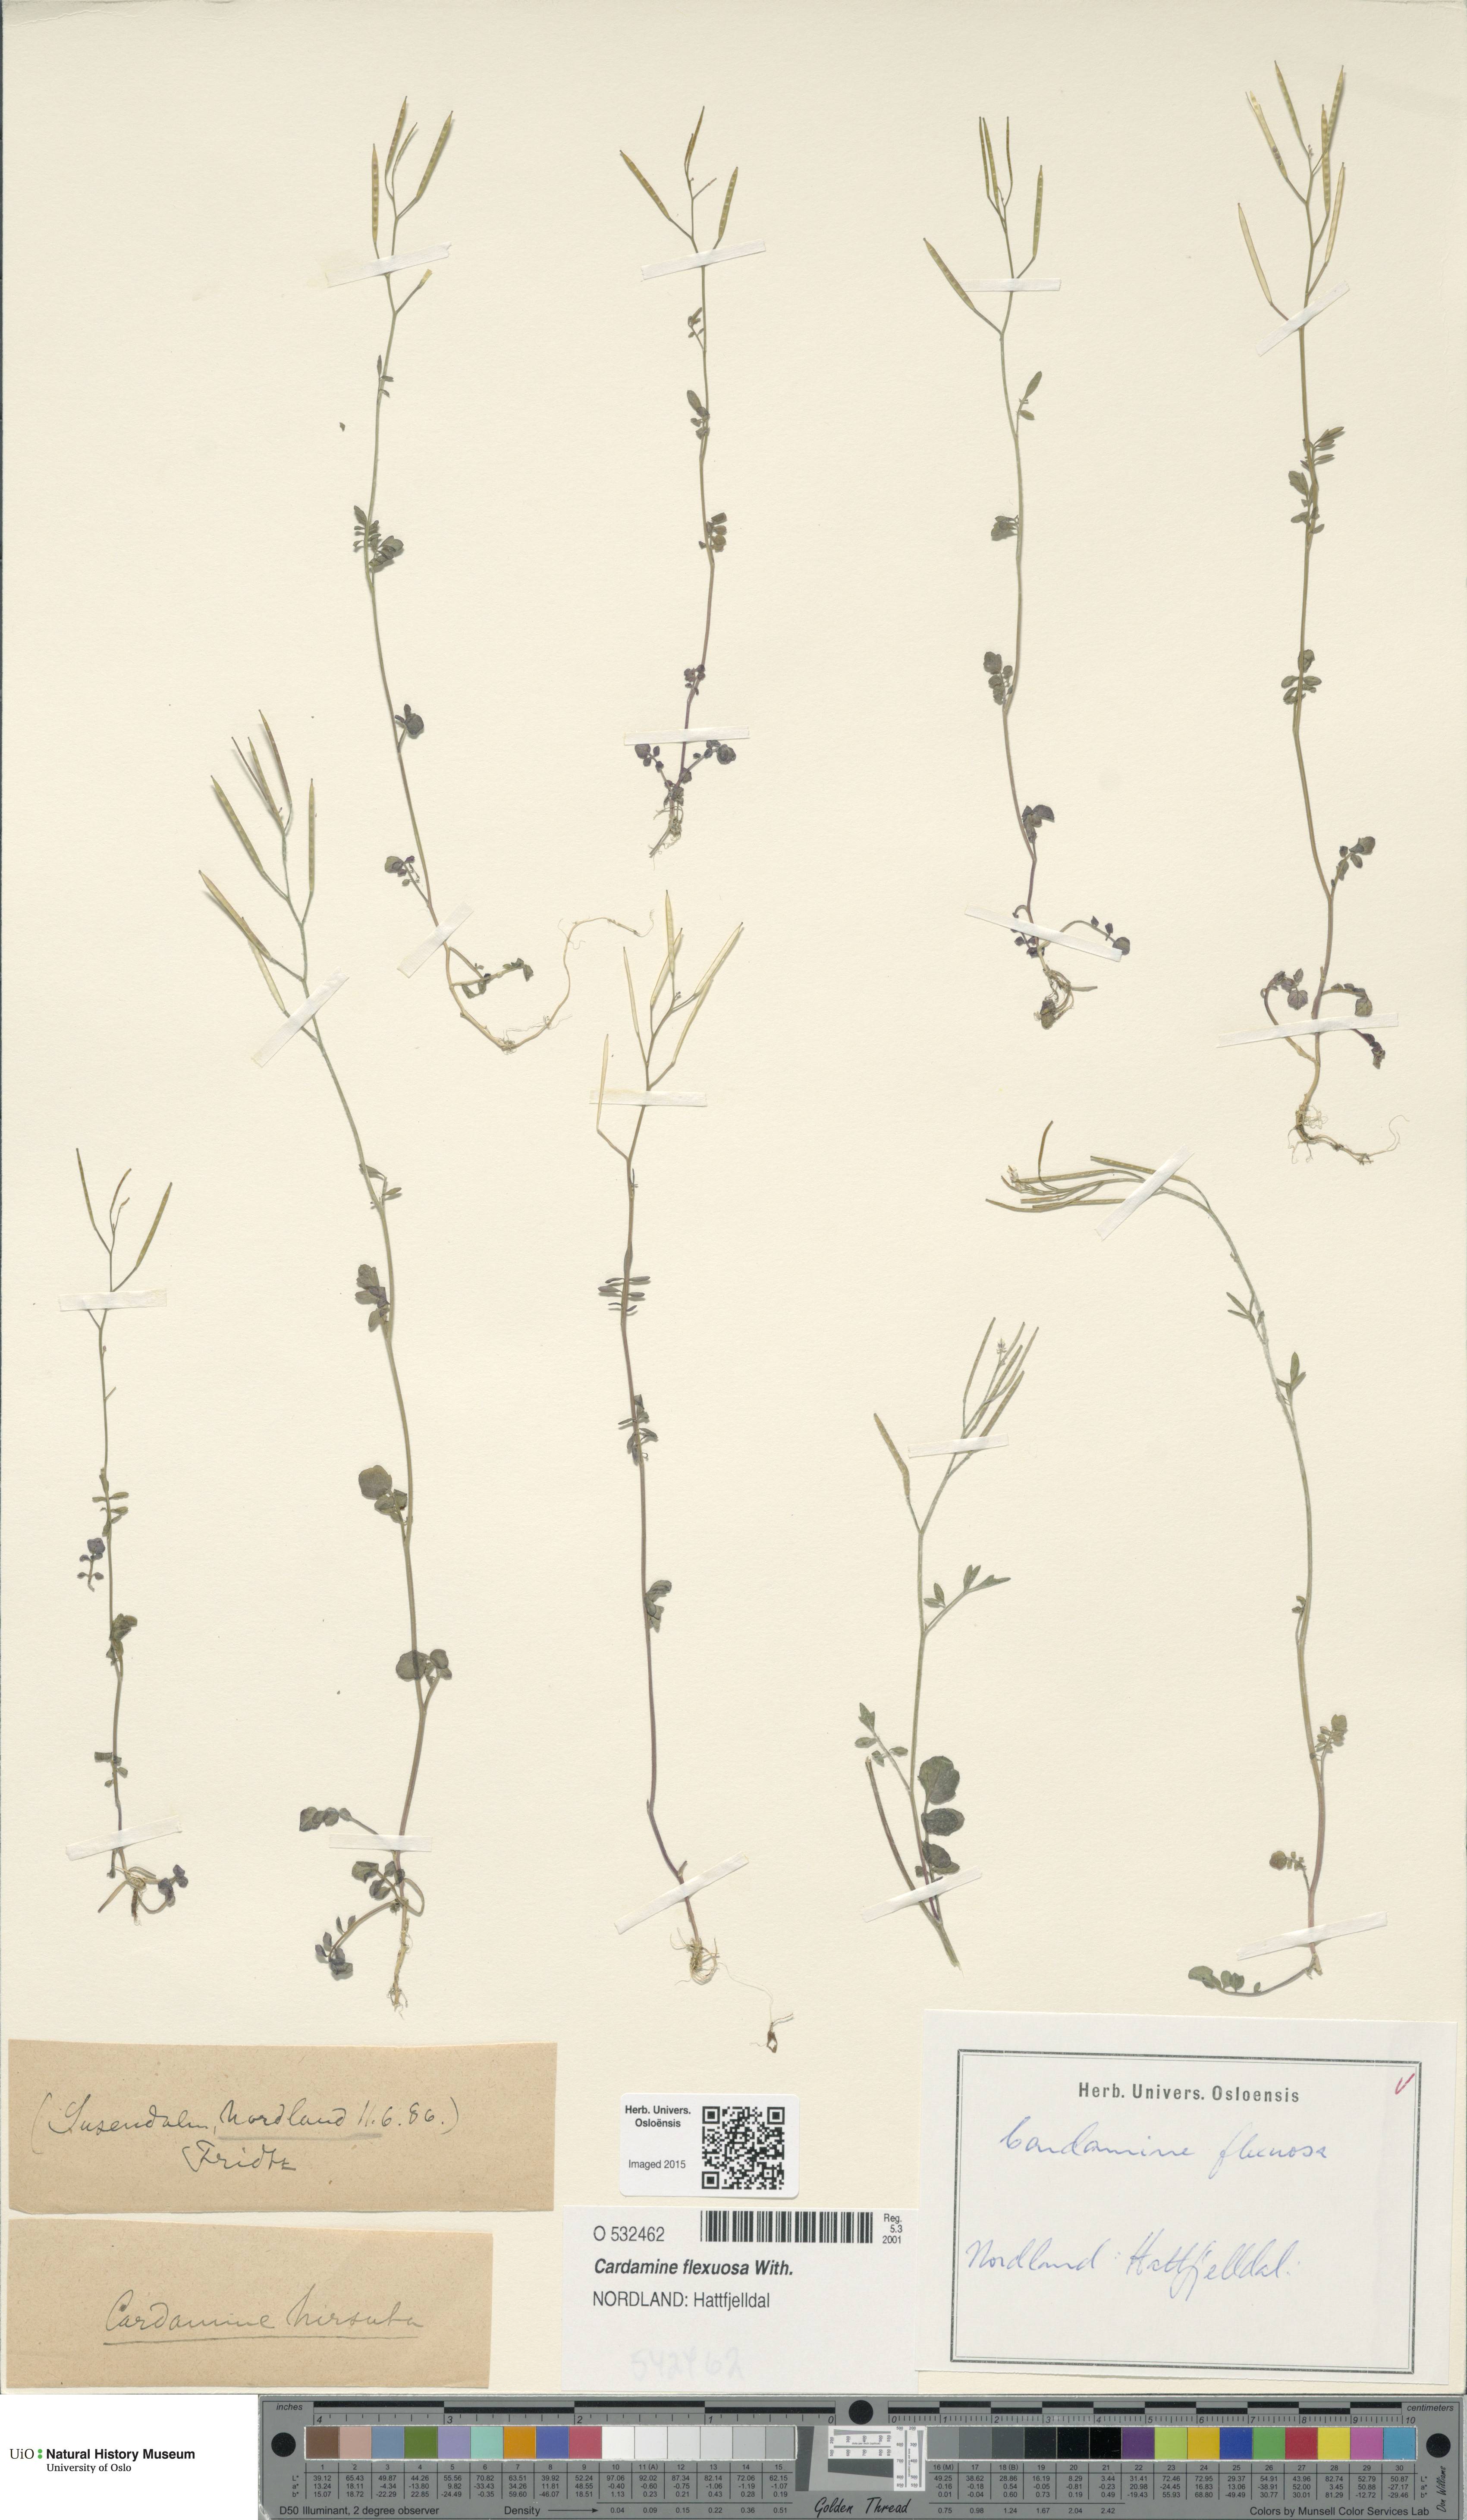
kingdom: Plantae
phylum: Tracheophyta
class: Magnoliopsida
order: Brassicales
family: Brassicaceae
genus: Cardamine
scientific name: Cardamine flexuosa
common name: Woodland bittercress
